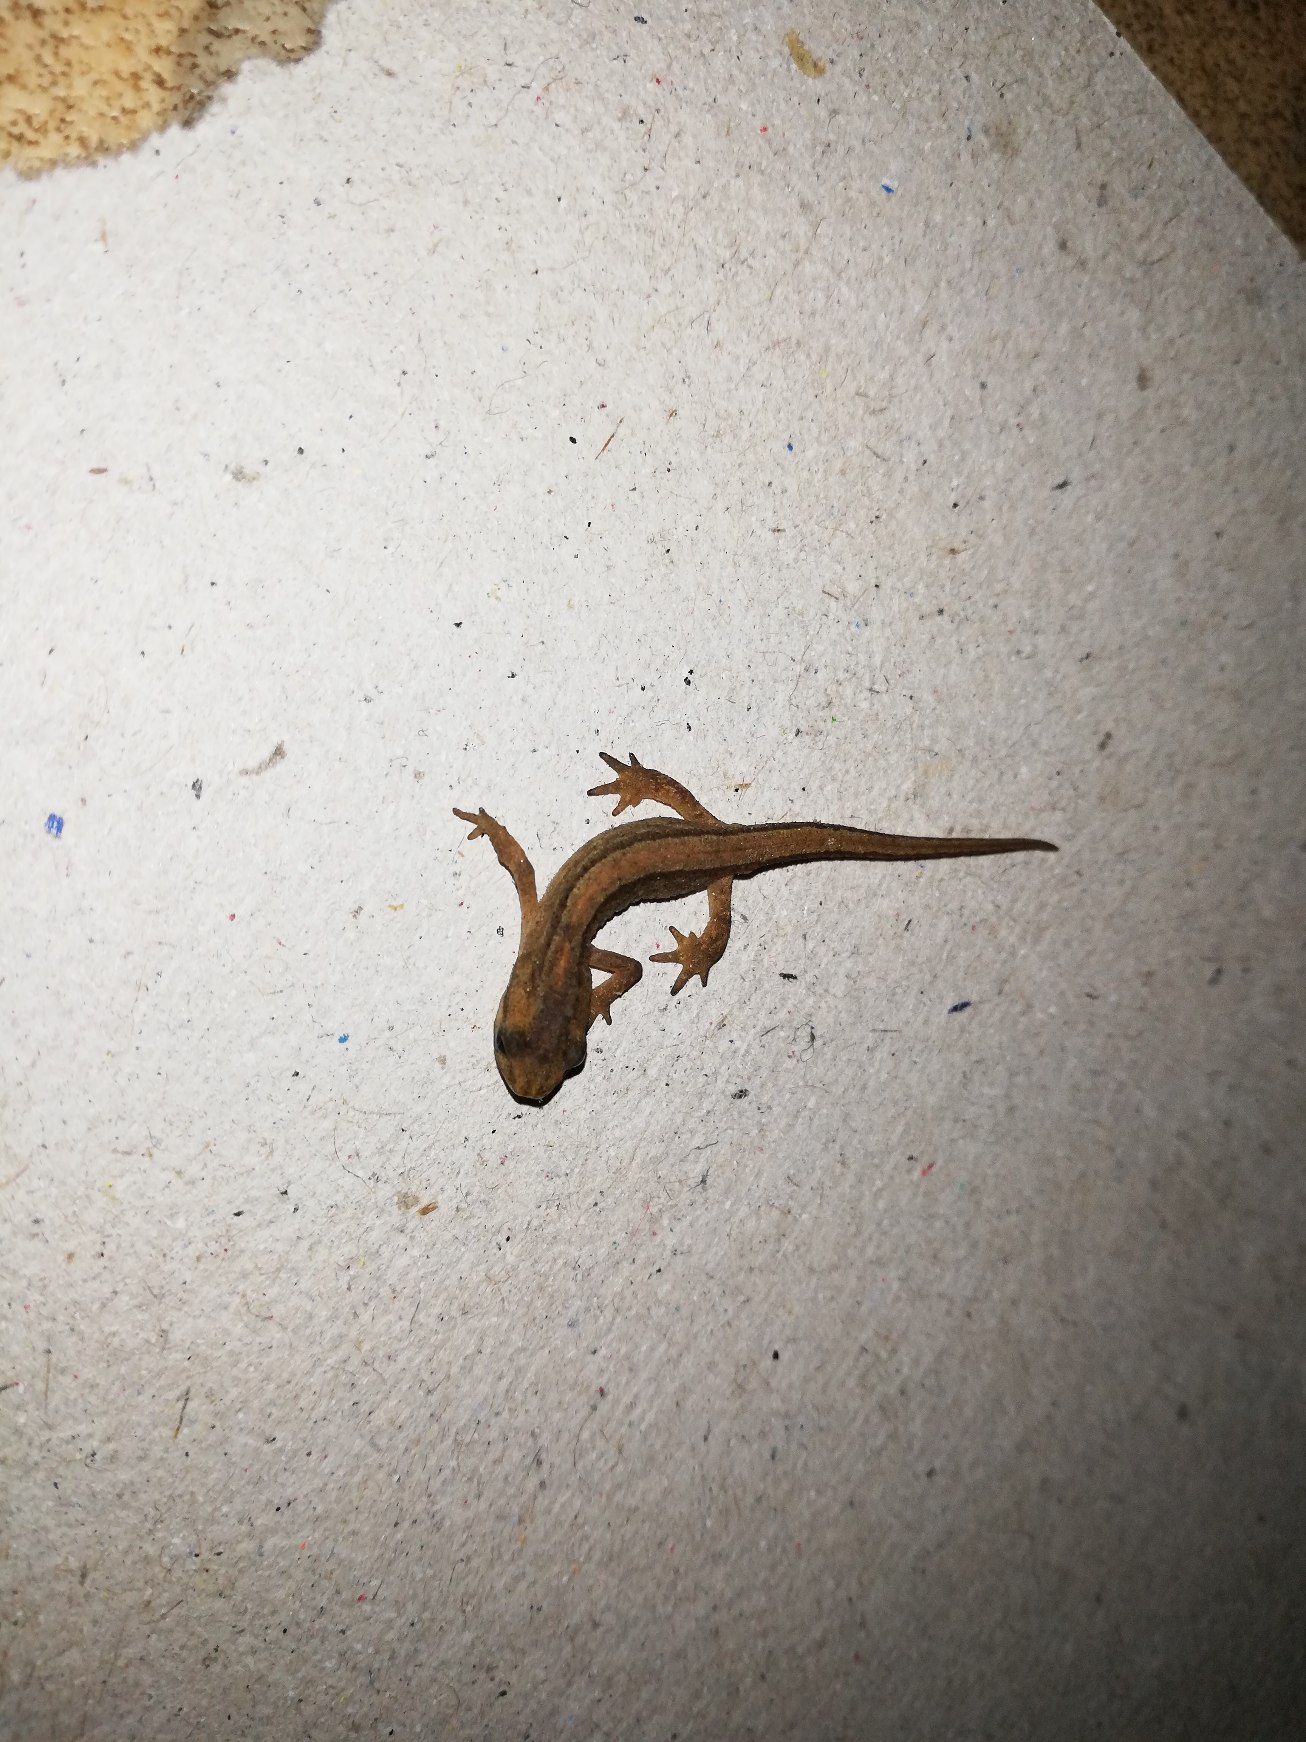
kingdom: Animalia
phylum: Chordata
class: Amphibia
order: Caudata
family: Salamandridae
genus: Lissotriton
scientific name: Lissotriton vulgaris
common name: Lille vandsalamander
